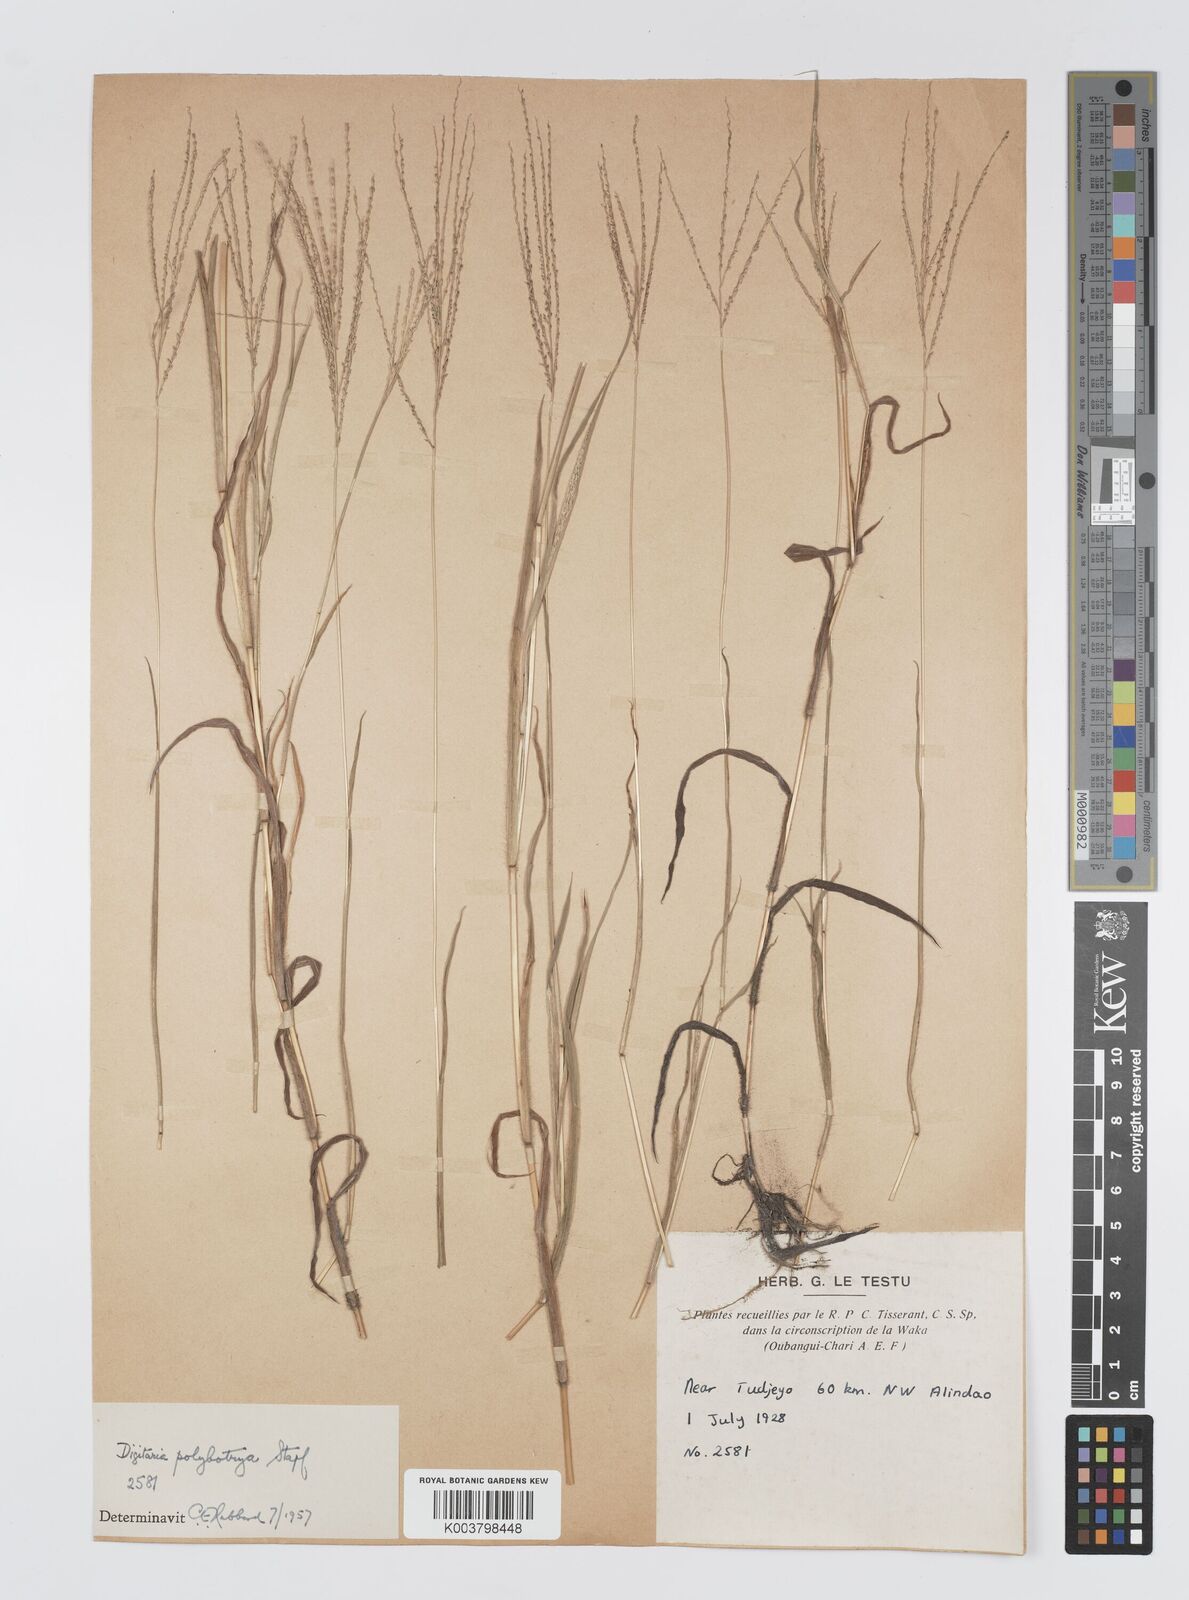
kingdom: Plantae
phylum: Tracheophyta
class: Liliopsida
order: Poales
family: Poaceae
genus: Digitaria
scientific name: Digitaria leptorhachis
